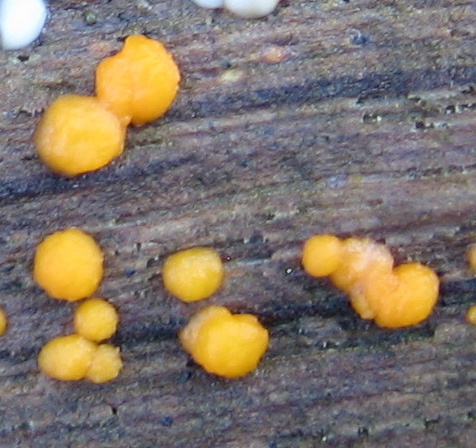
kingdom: Fungi
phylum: Basidiomycota
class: Dacrymycetes
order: Dacrymycetales
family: Dacrymycetaceae
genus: Dacrymyces
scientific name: Dacrymyces stillatus
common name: almindelig tåresvamp
